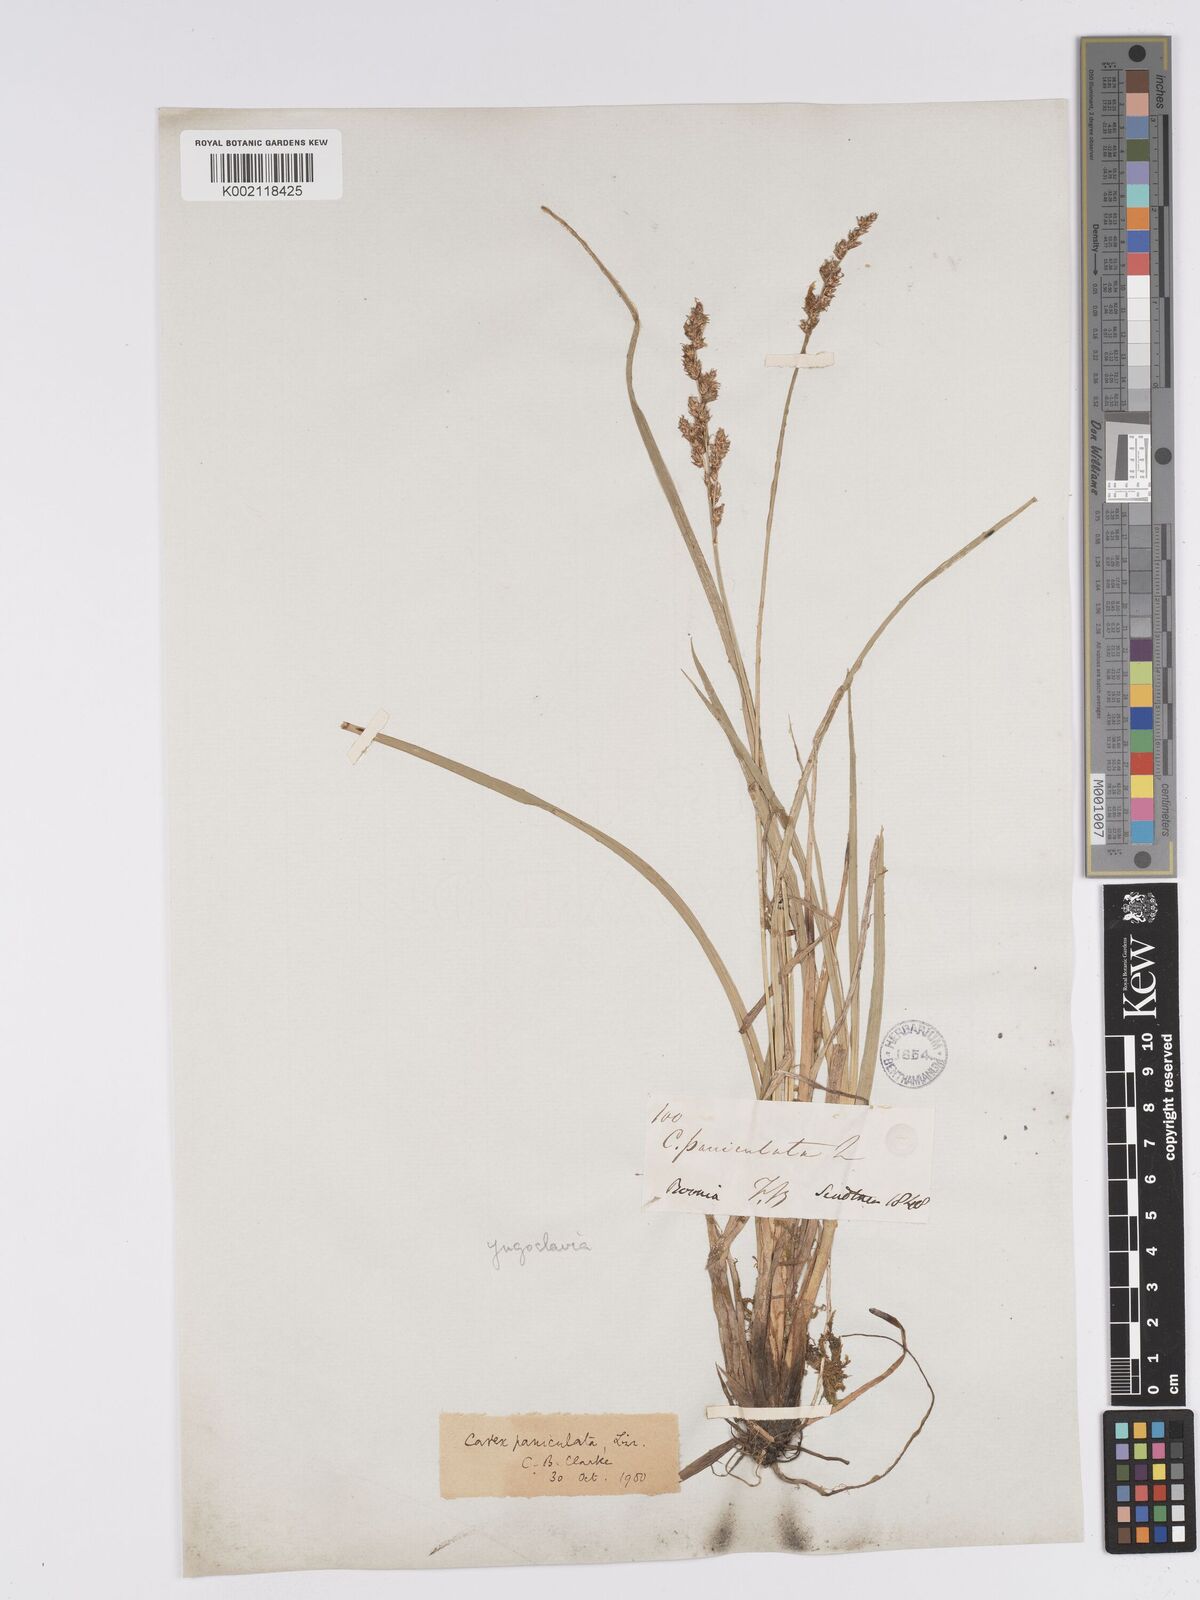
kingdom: Plantae
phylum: Tracheophyta
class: Liliopsida
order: Poales
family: Cyperaceae
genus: Carex
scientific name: Carex paniculata
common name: Greater tussock-sedge
